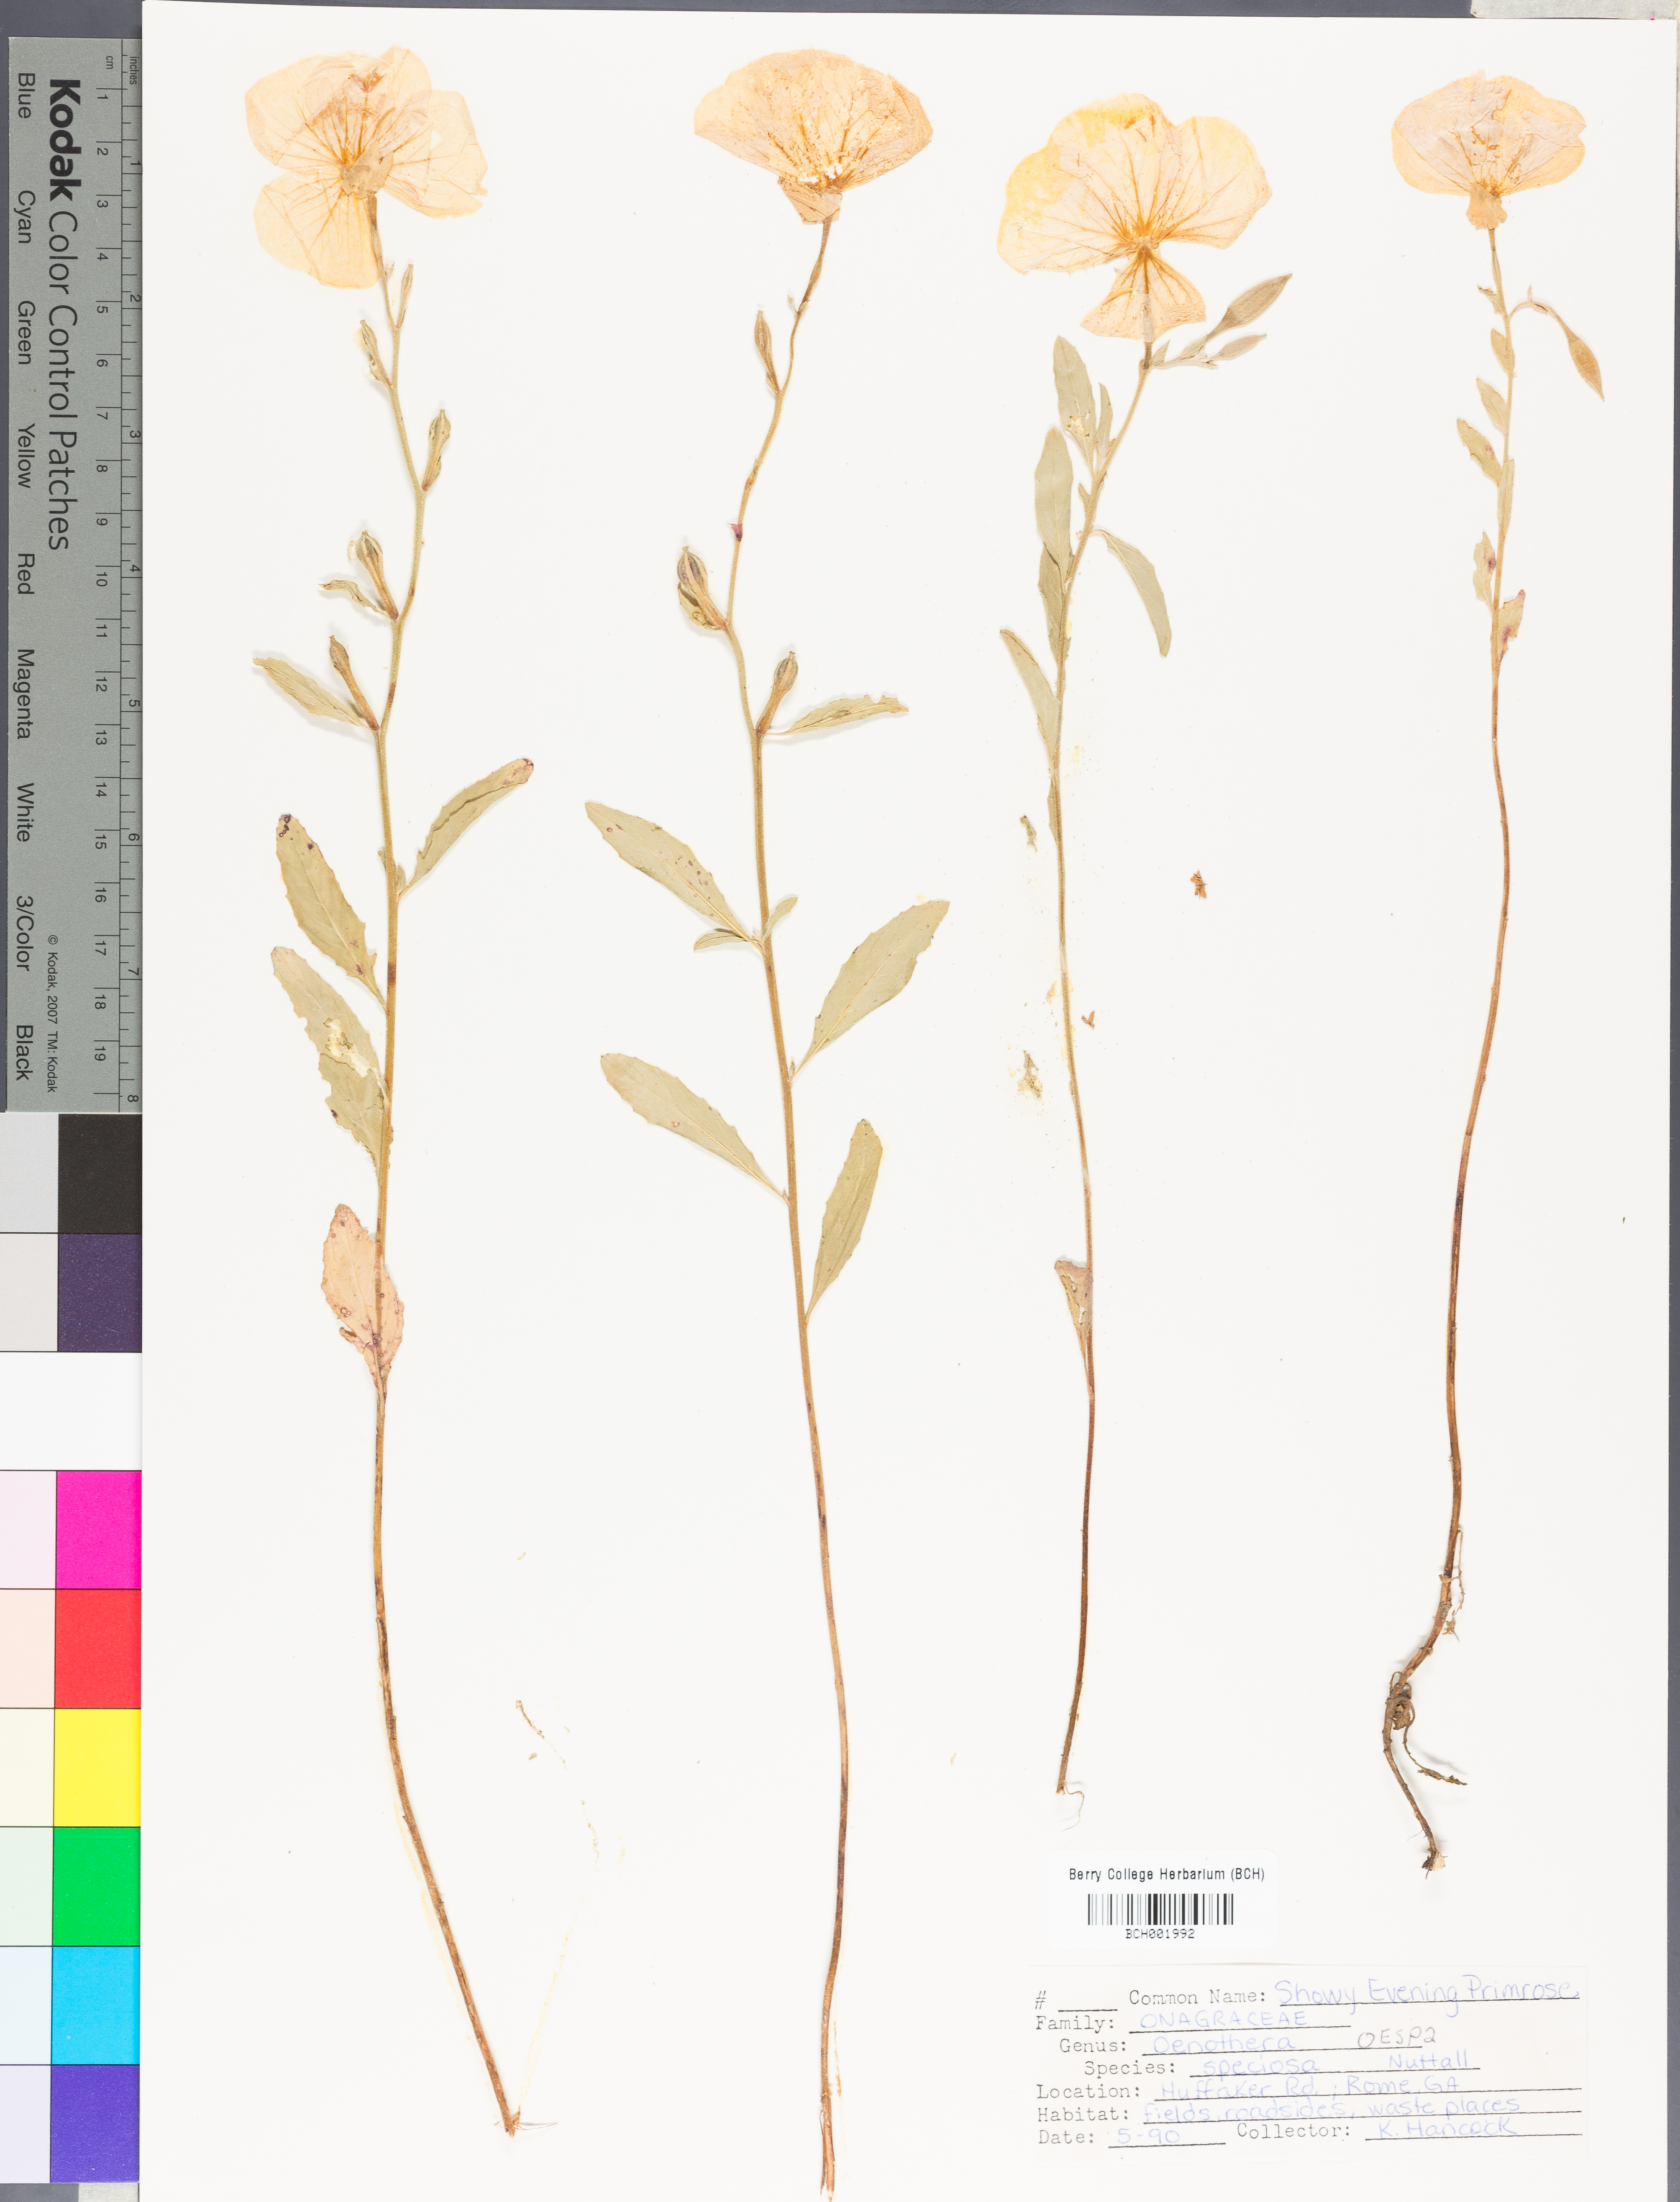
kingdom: Plantae
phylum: Tracheophyta
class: Magnoliopsida
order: Myrtales
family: Onagraceae
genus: Oenothera
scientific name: Oenothera speciosa
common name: White evening-primrose
